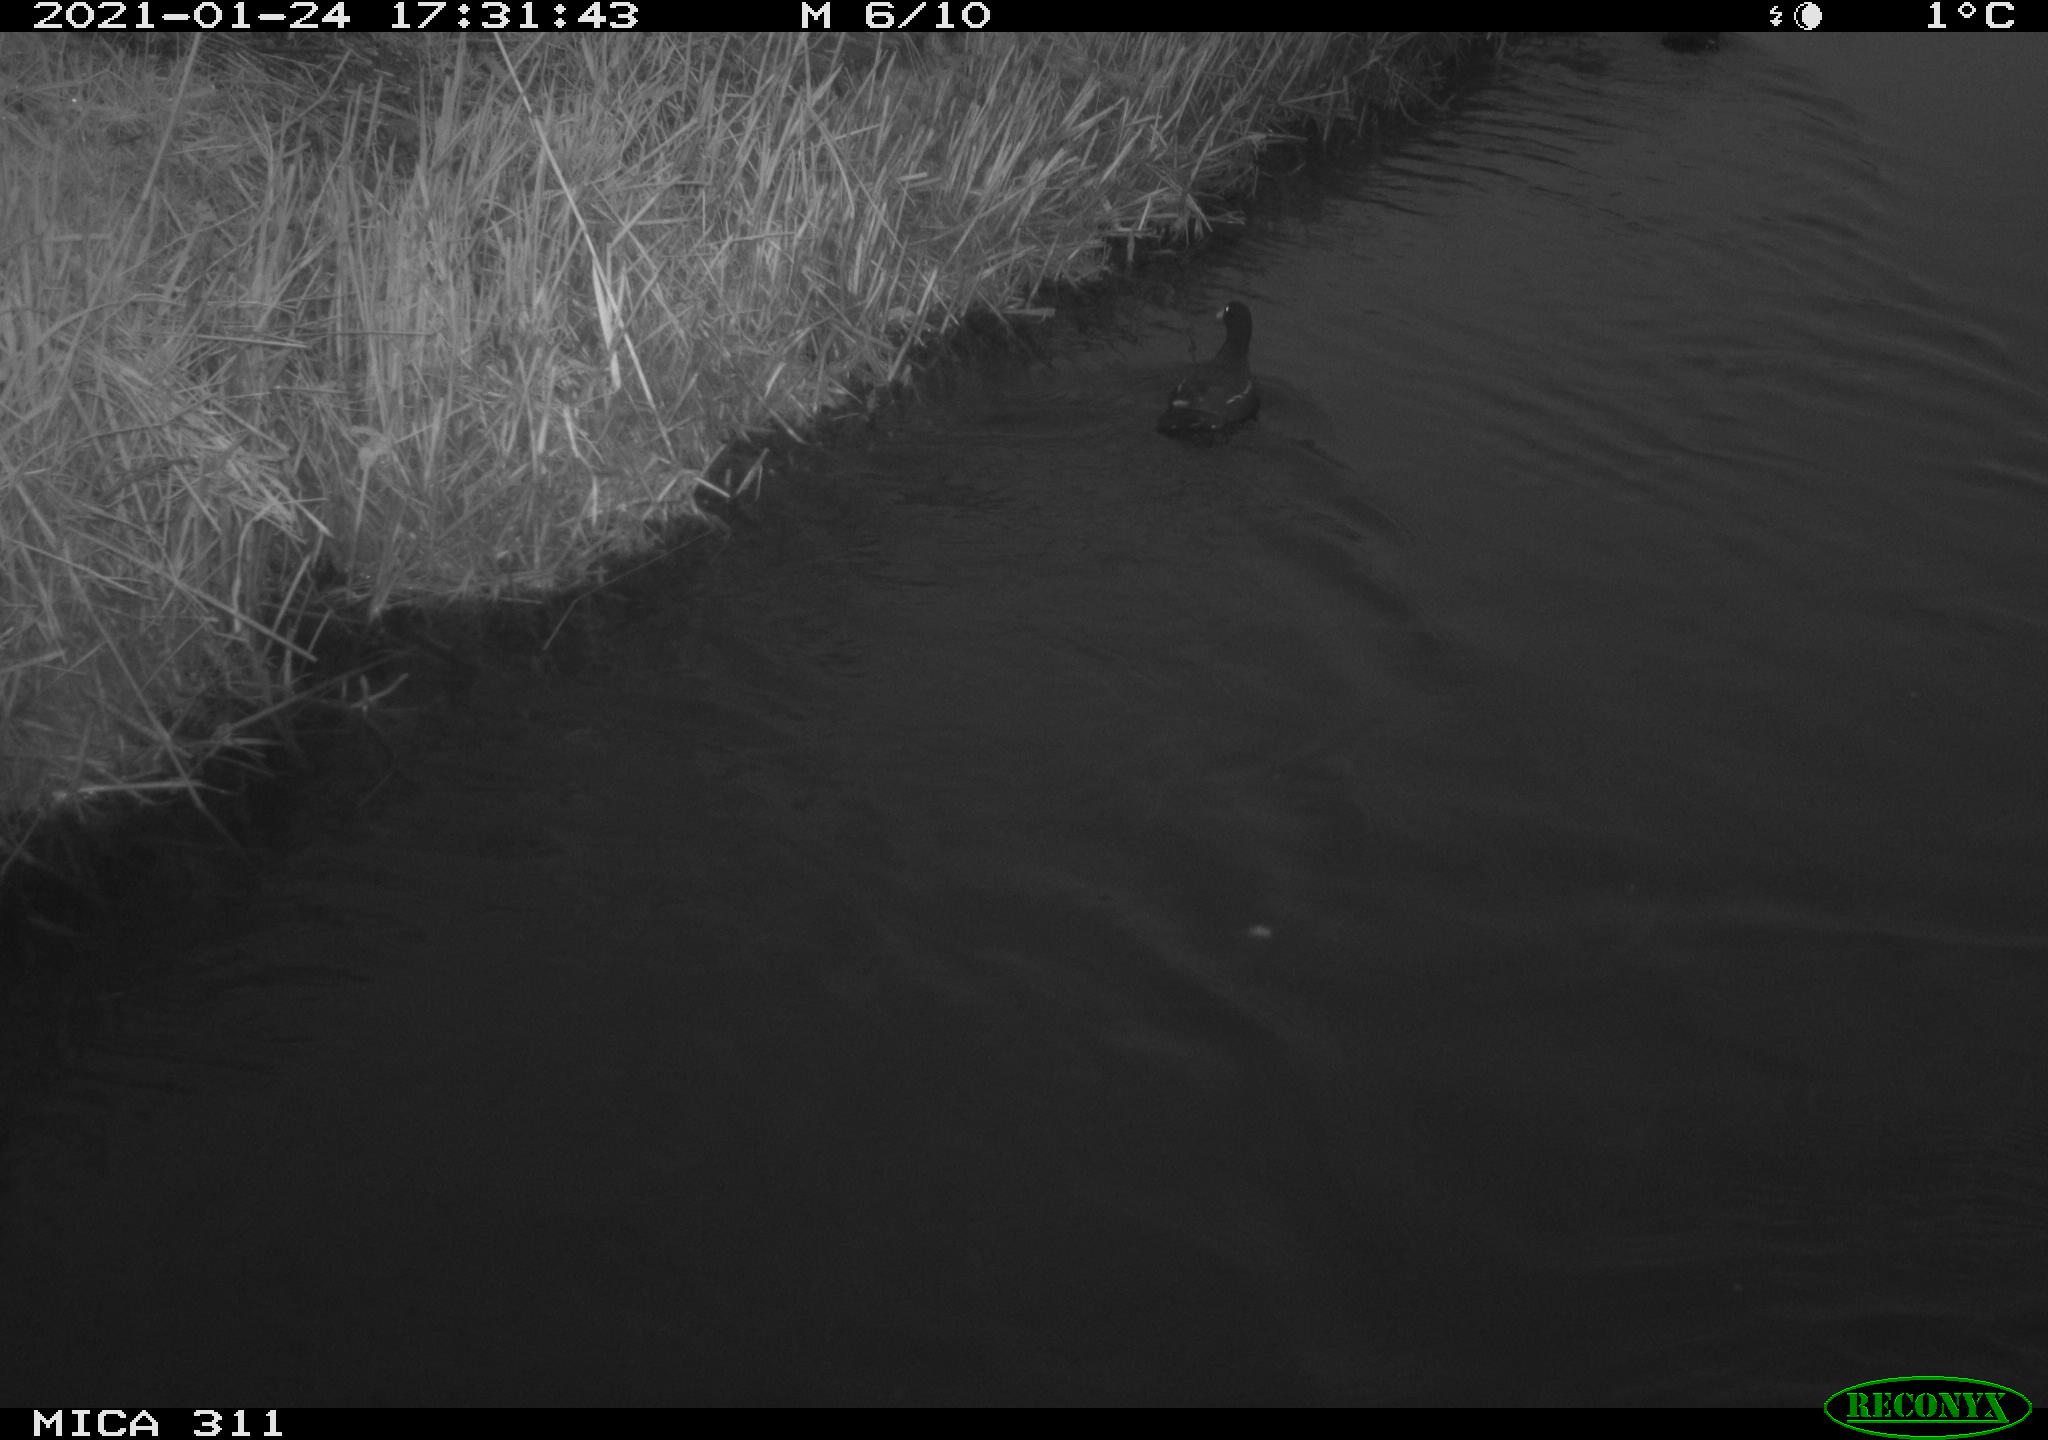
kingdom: Animalia
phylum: Chordata
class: Aves
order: Gruiformes
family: Rallidae
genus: Gallinula
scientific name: Gallinula chloropus
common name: Common moorhen
